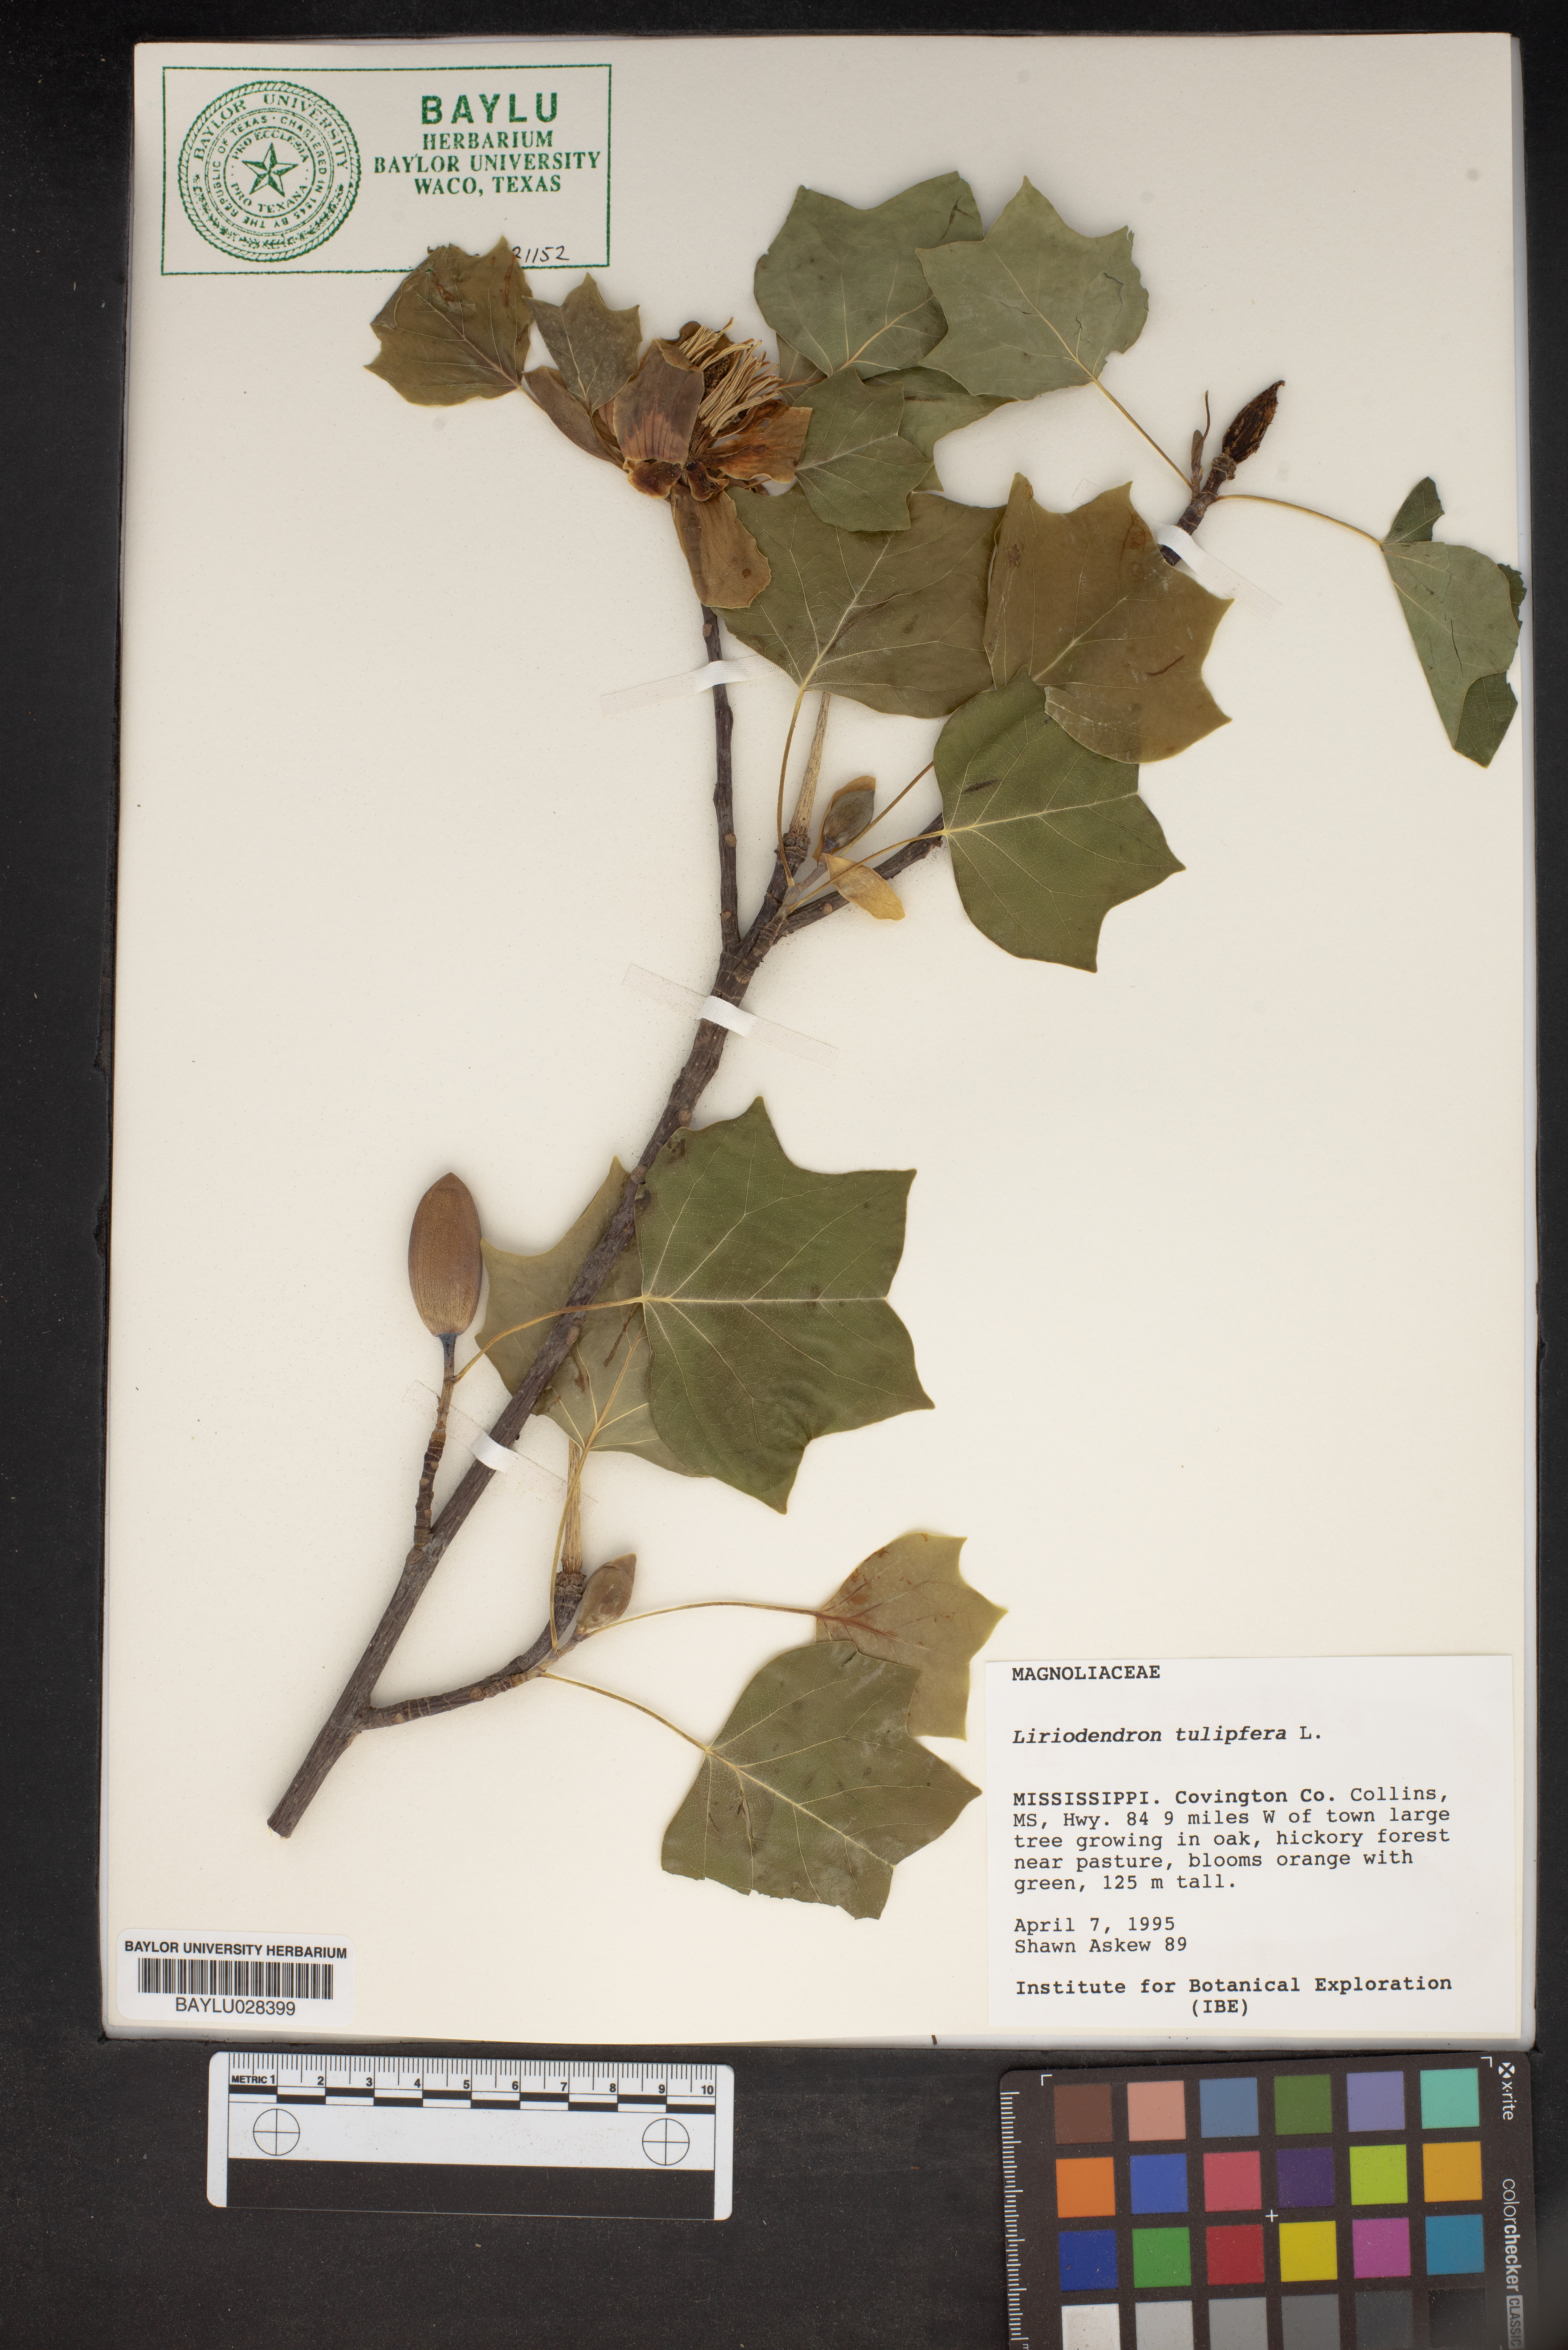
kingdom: Plantae
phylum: Tracheophyta
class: Magnoliopsida
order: Magnoliales
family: Magnoliaceae
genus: Liriodendron
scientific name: Liriodendron tulipifera
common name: Tulip tree
